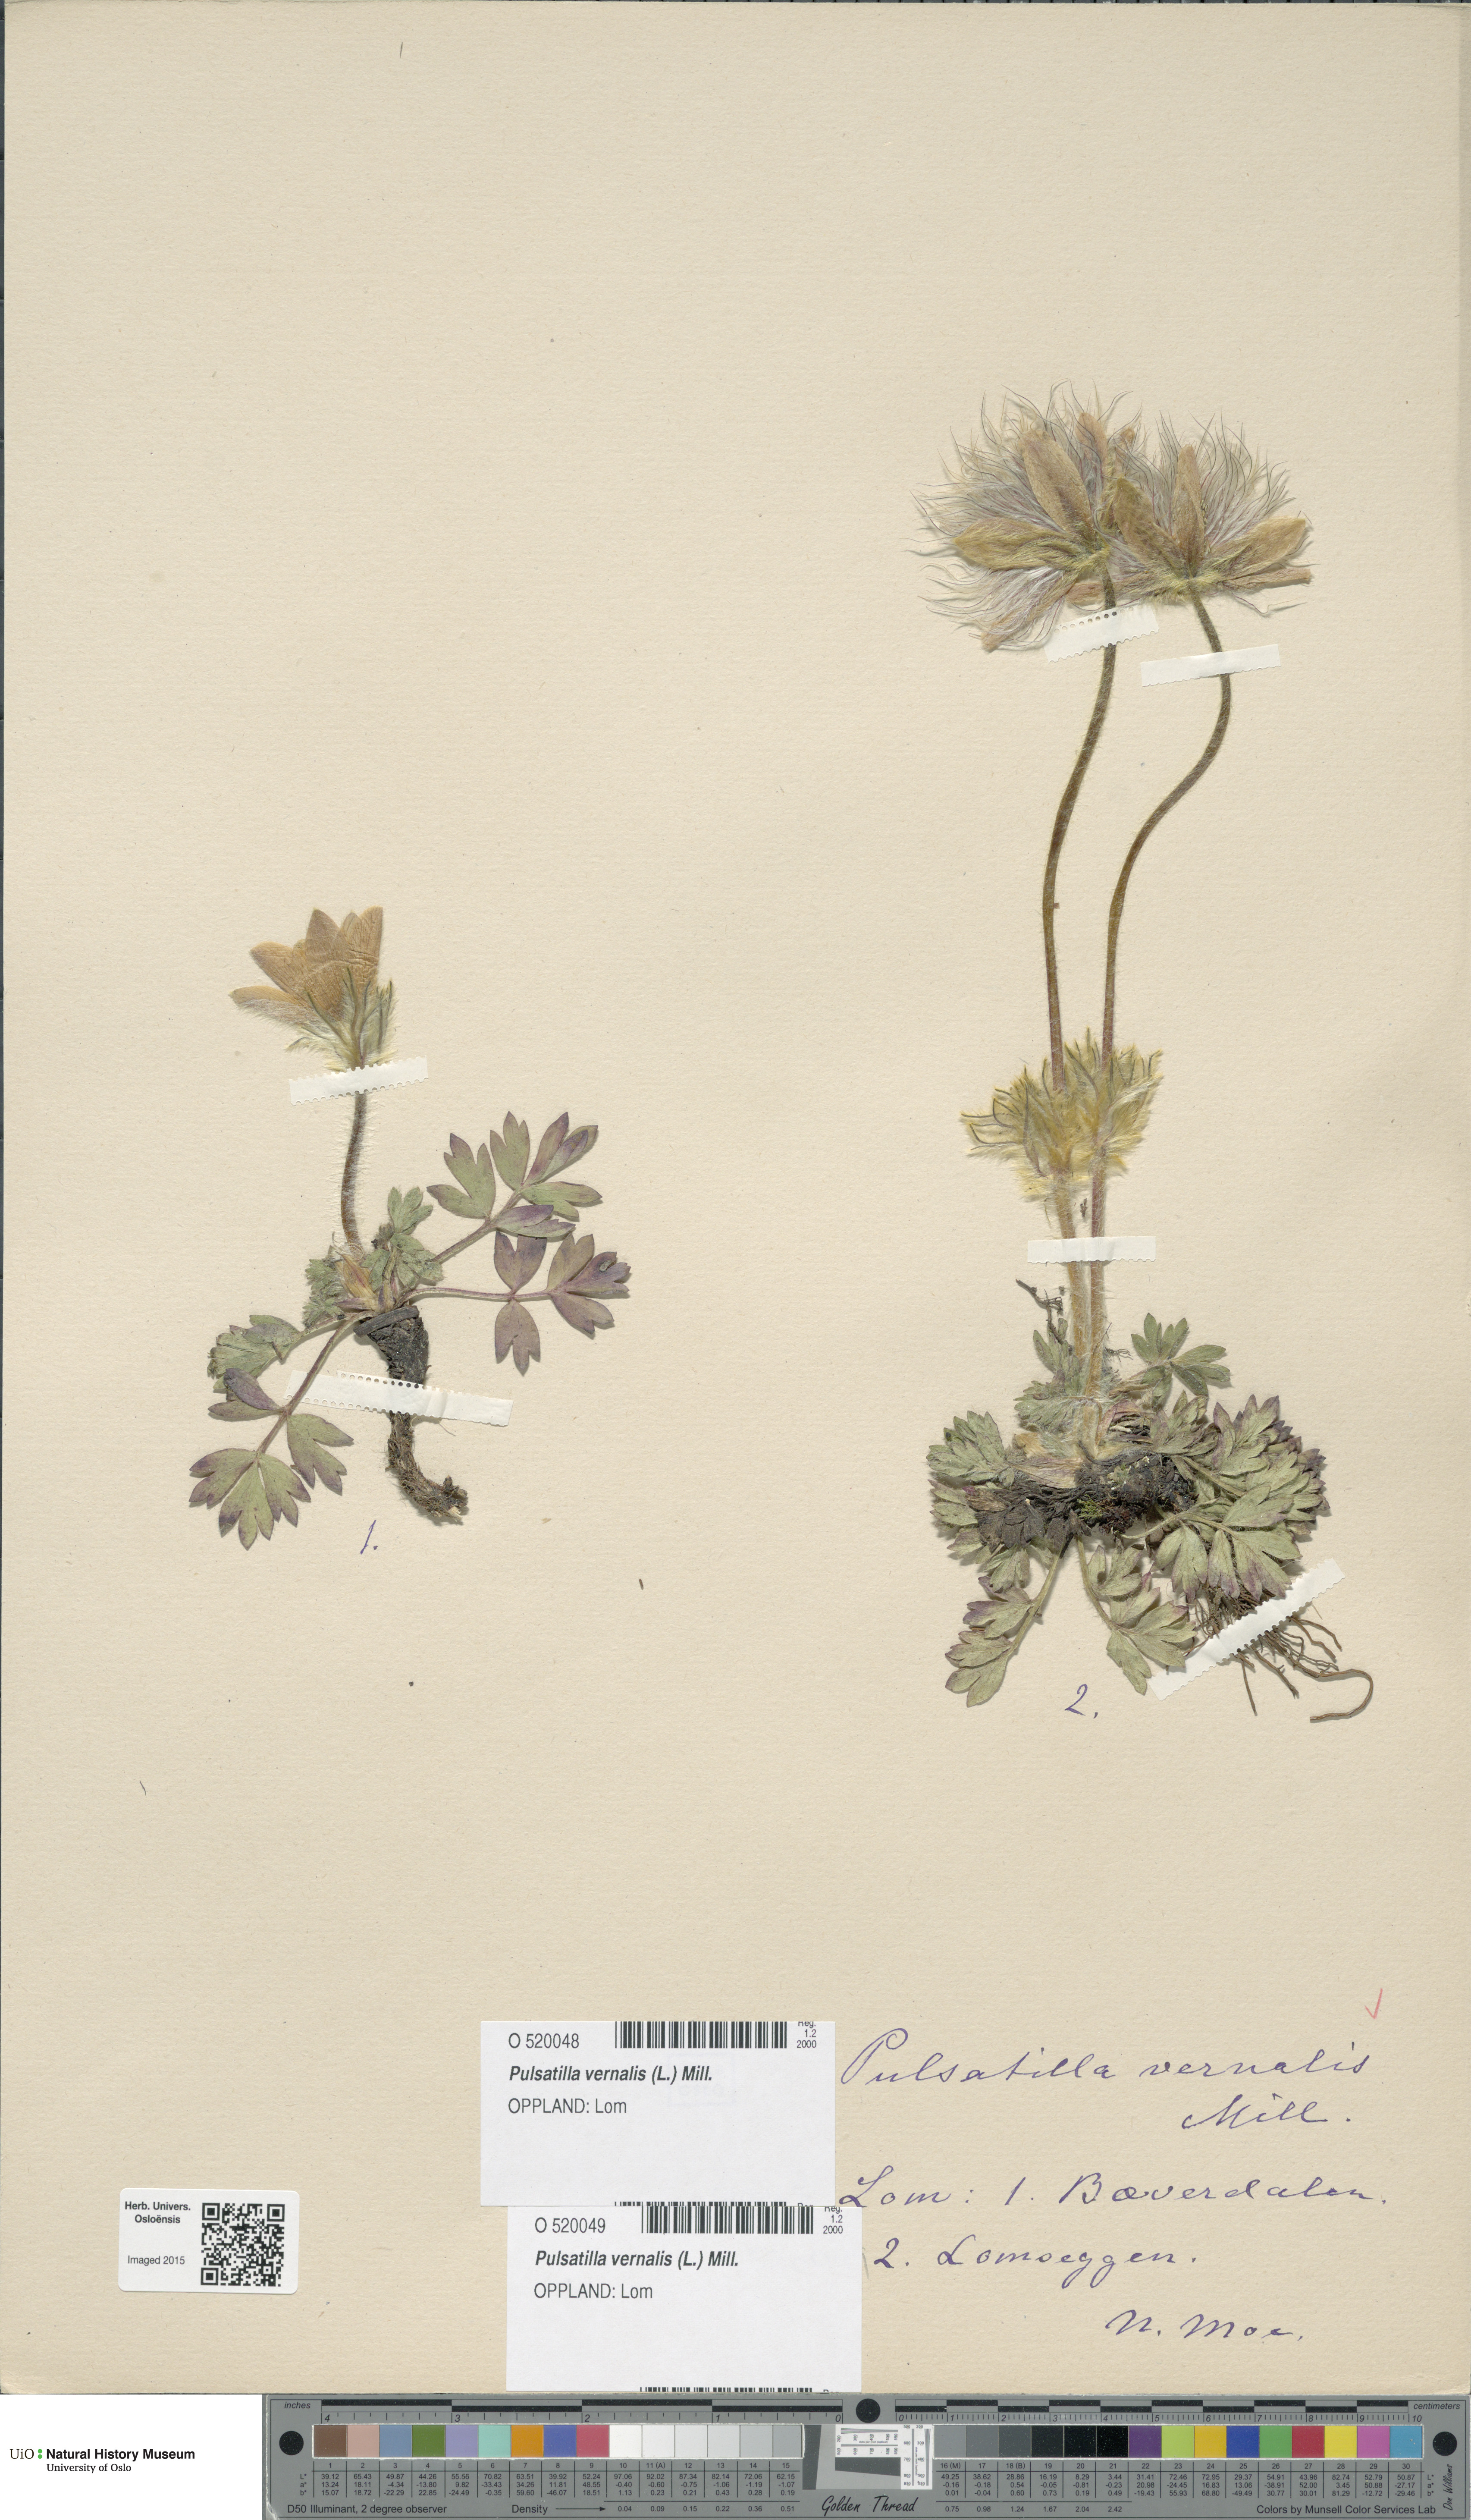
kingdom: Plantae
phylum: Tracheophyta
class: Magnoliopsida
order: Ranunculales
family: Ranunculaceae
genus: Pulsatilla
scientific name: Pulsatilla vernalis
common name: Spring pasque flower
